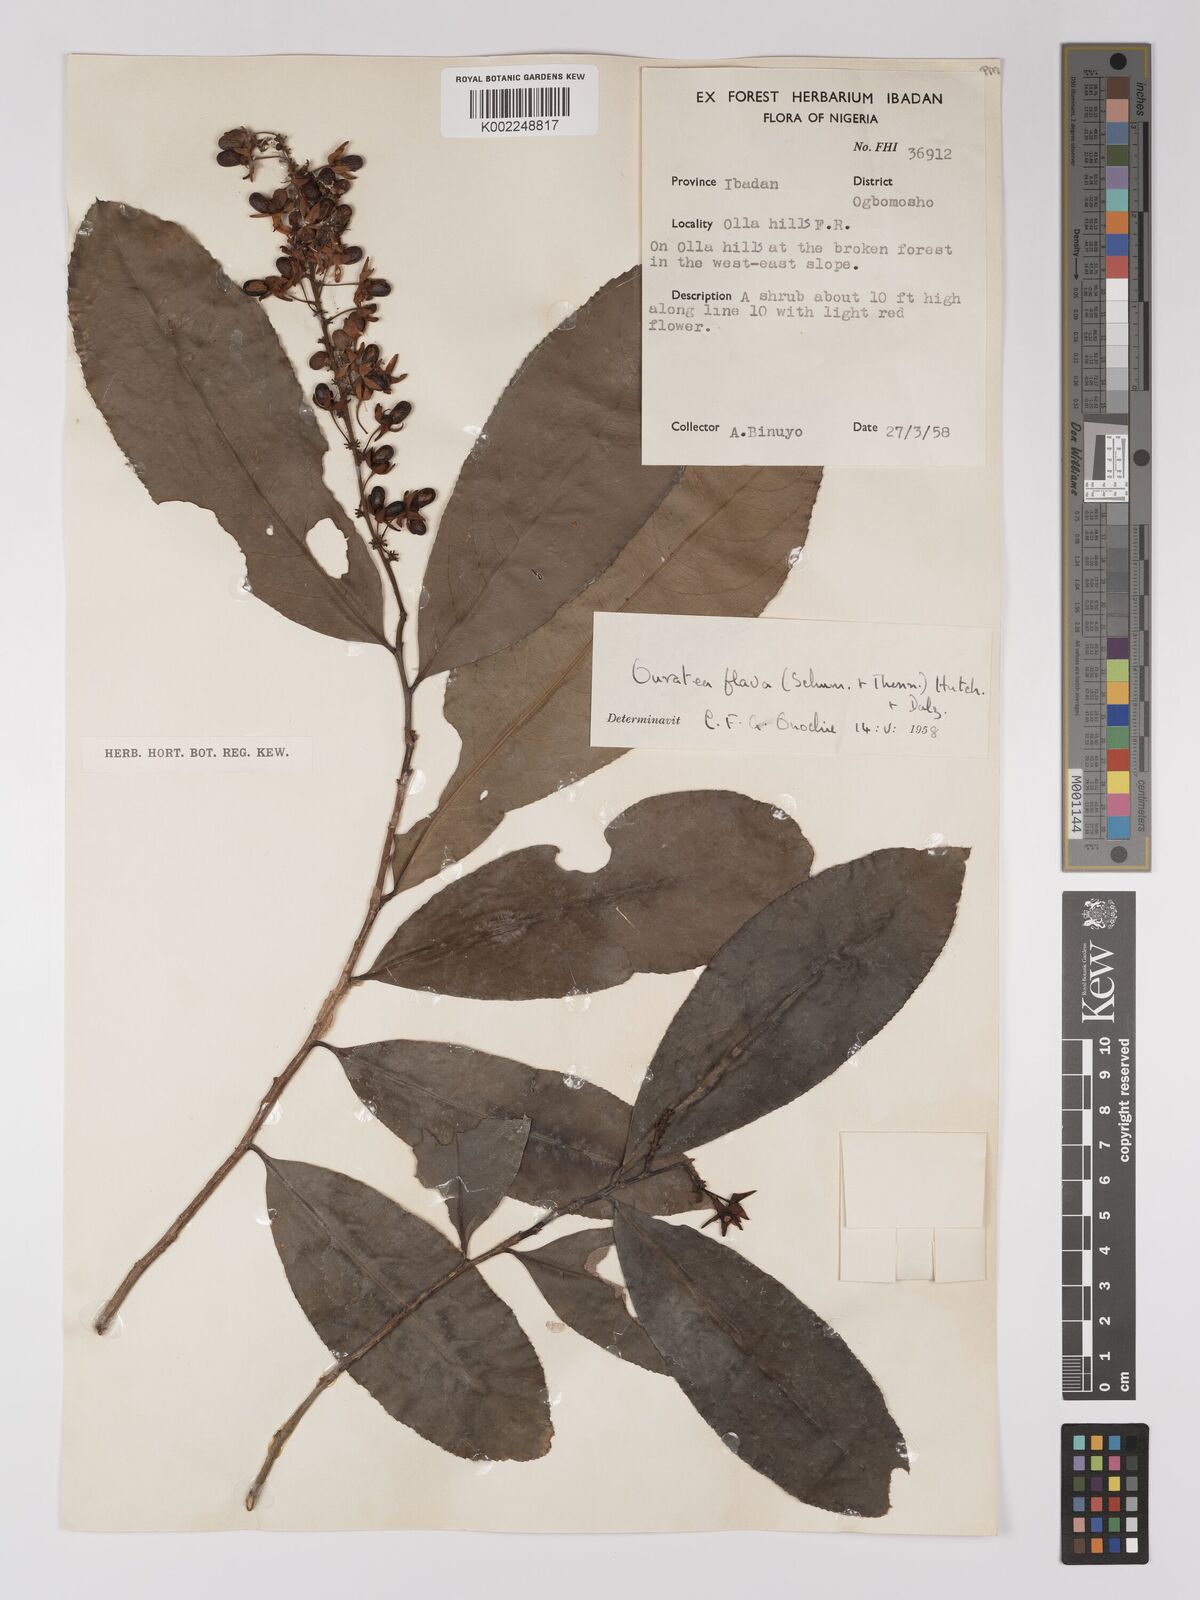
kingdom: Plantae
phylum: Tracheophyta
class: Magnoliopsida
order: Malpighiales
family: Ochnaceae
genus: Campylospermum
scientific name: Campylospermum flavum
